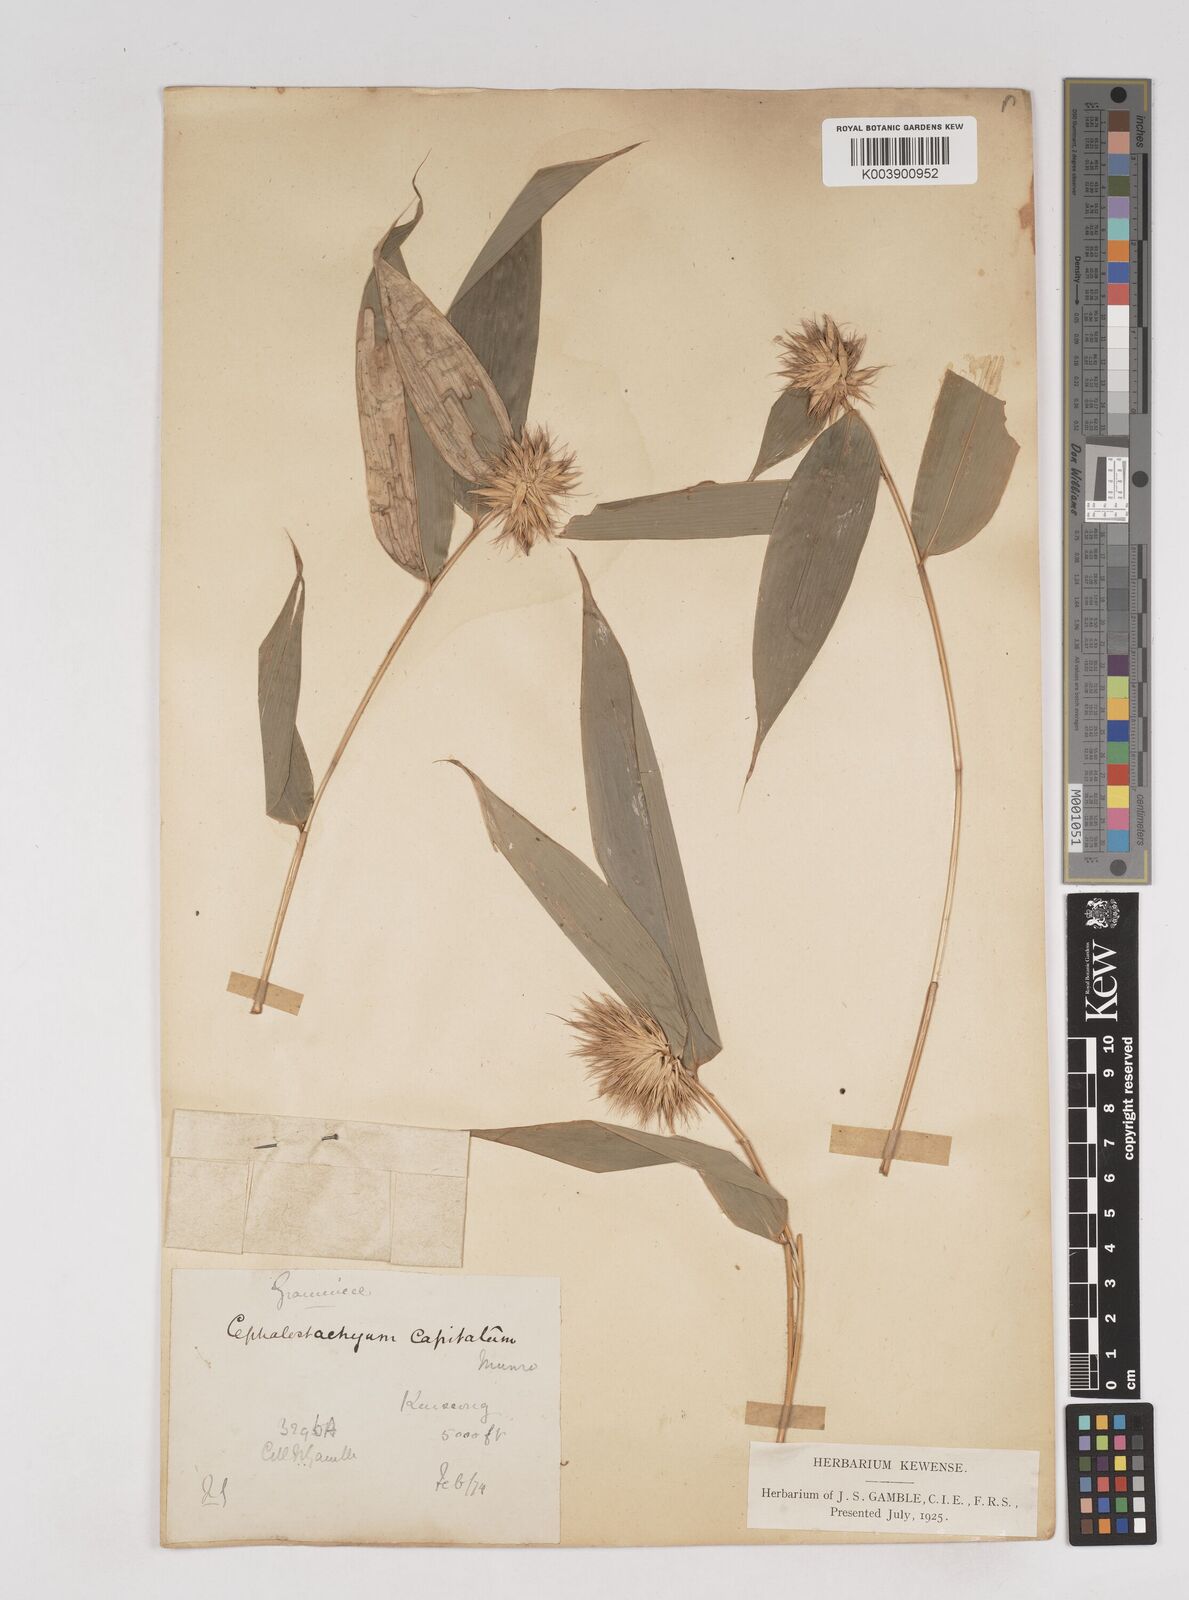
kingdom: Plantae
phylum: Tracheophyta
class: Liliopsida
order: Poales
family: Poaceae
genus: Cephalostachyum
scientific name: Cephalostachyum capitatum
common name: Hollow bamboo
